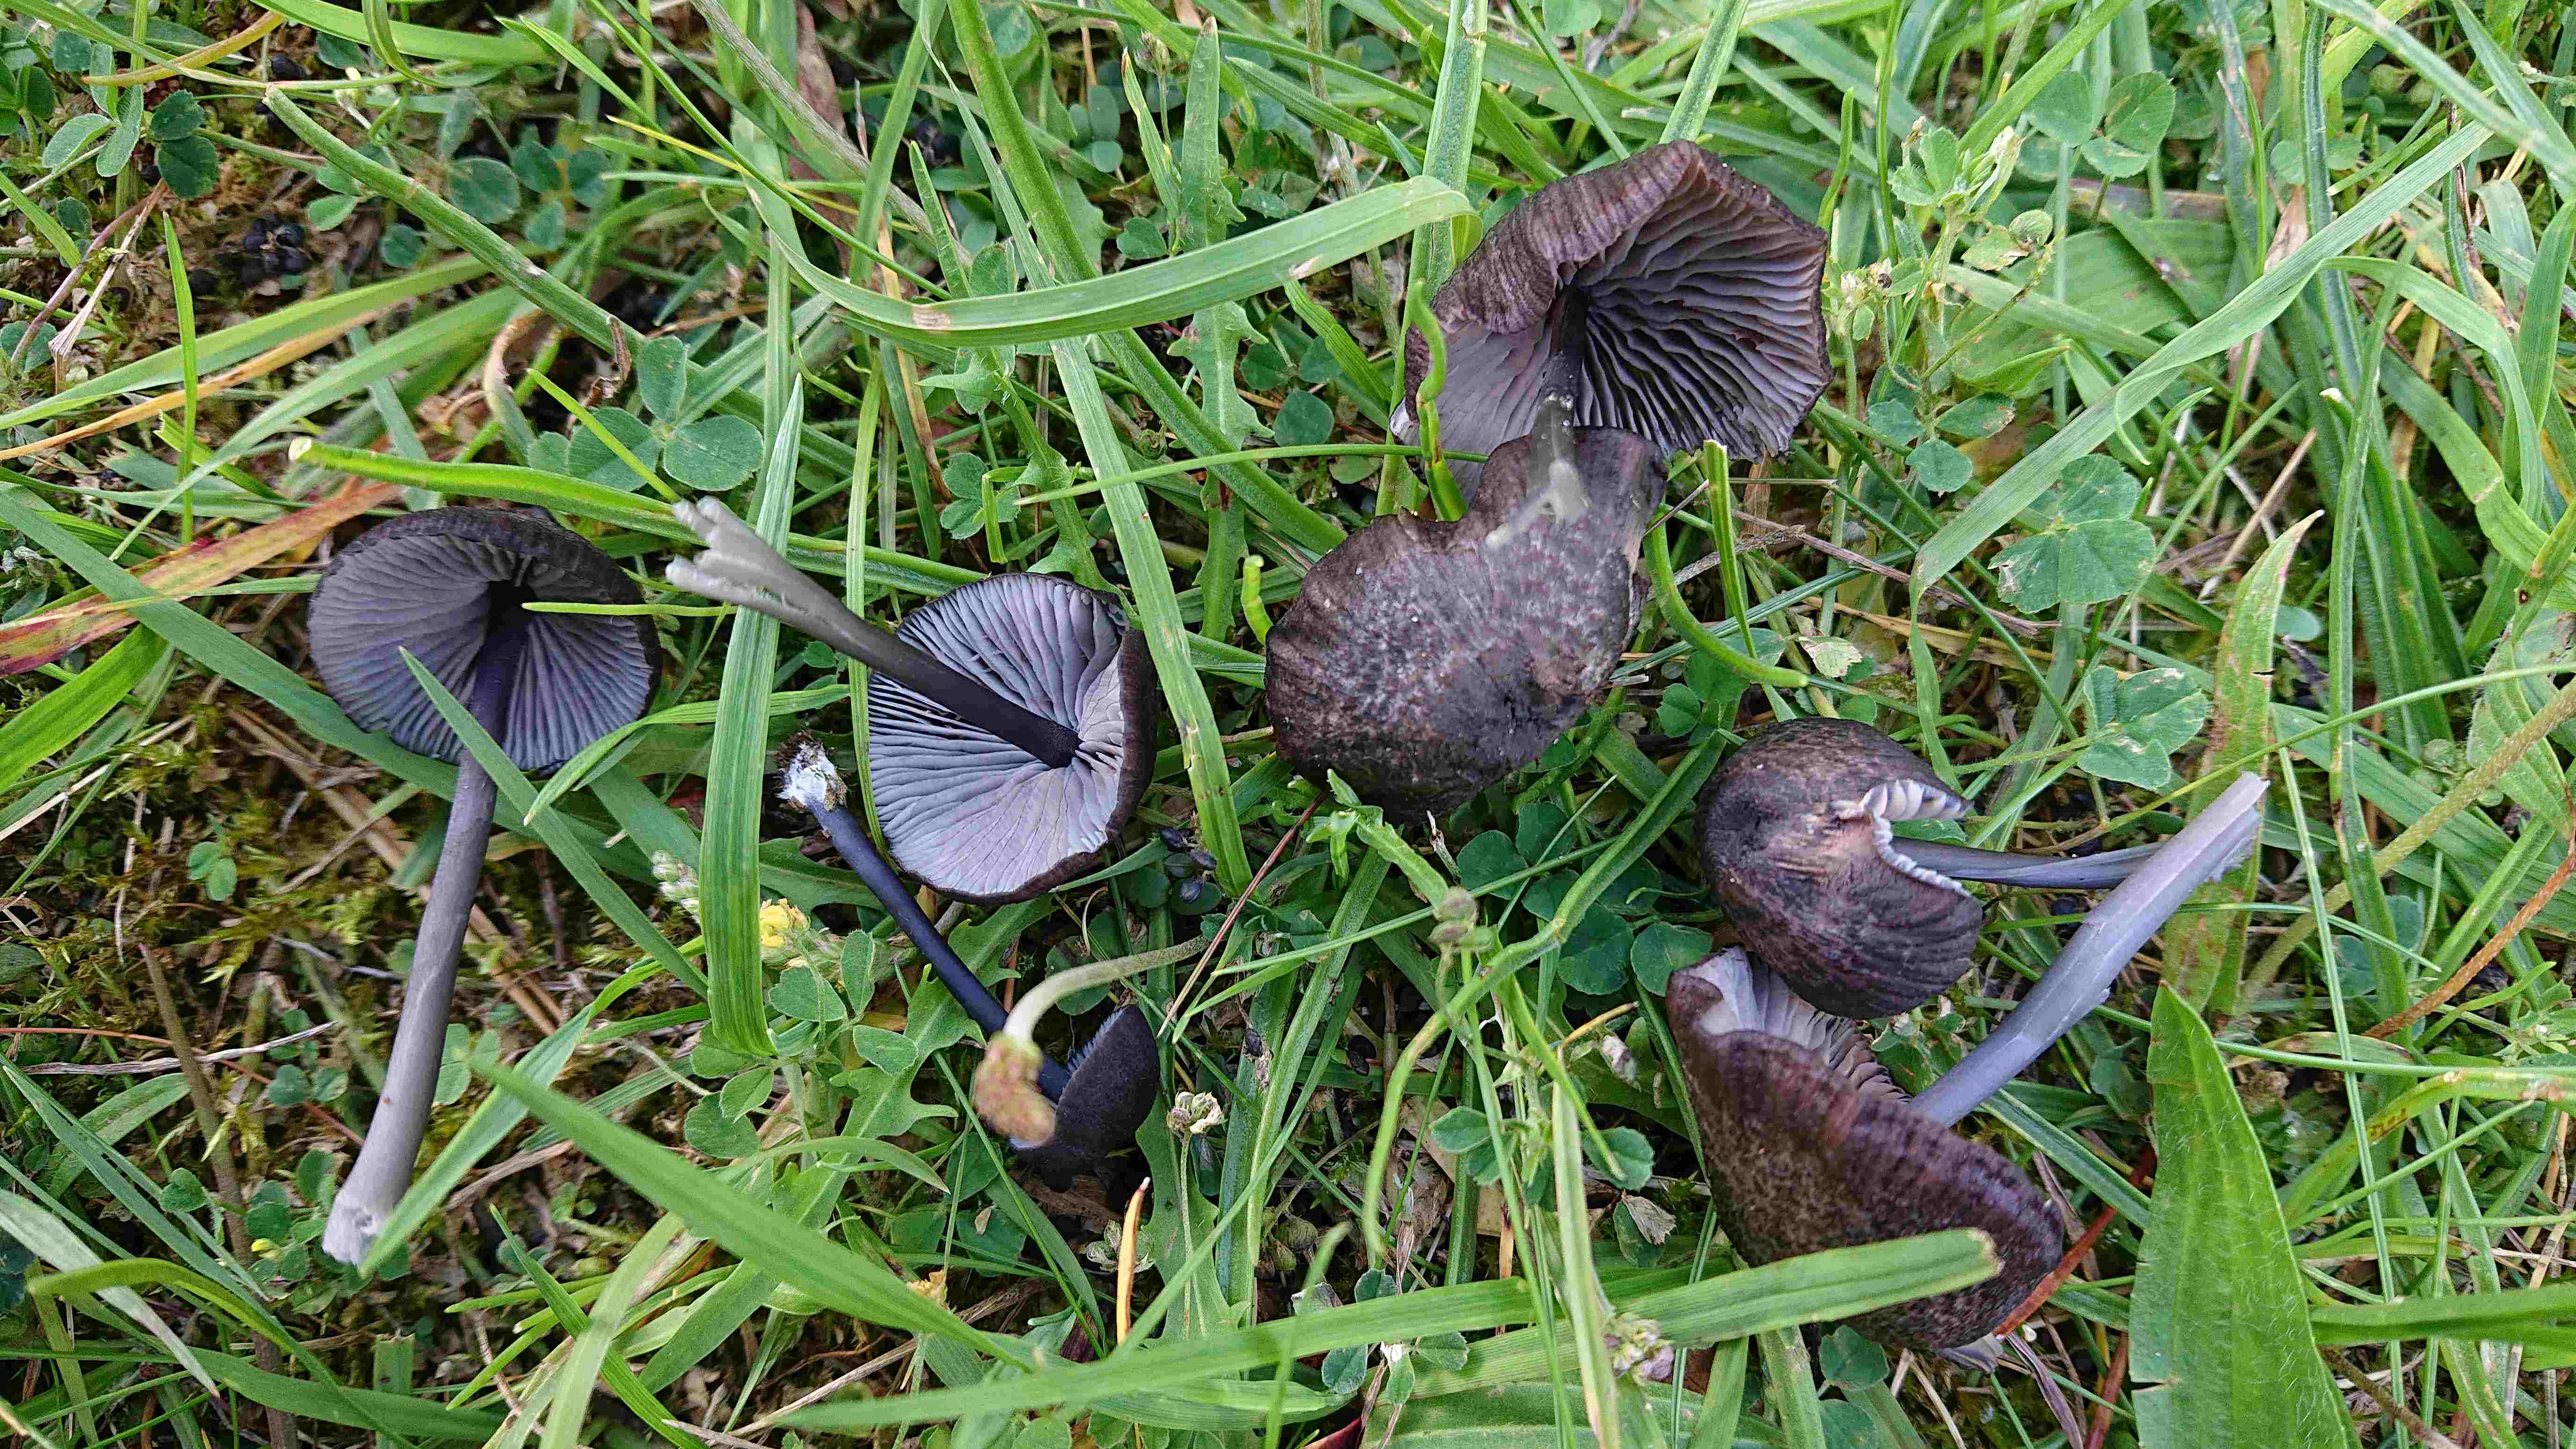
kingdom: Fungi
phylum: Basidiomycota
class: Agaricomycetes
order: Agaricales
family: Entolomataceae
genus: Entoloma
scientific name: Entoloma
